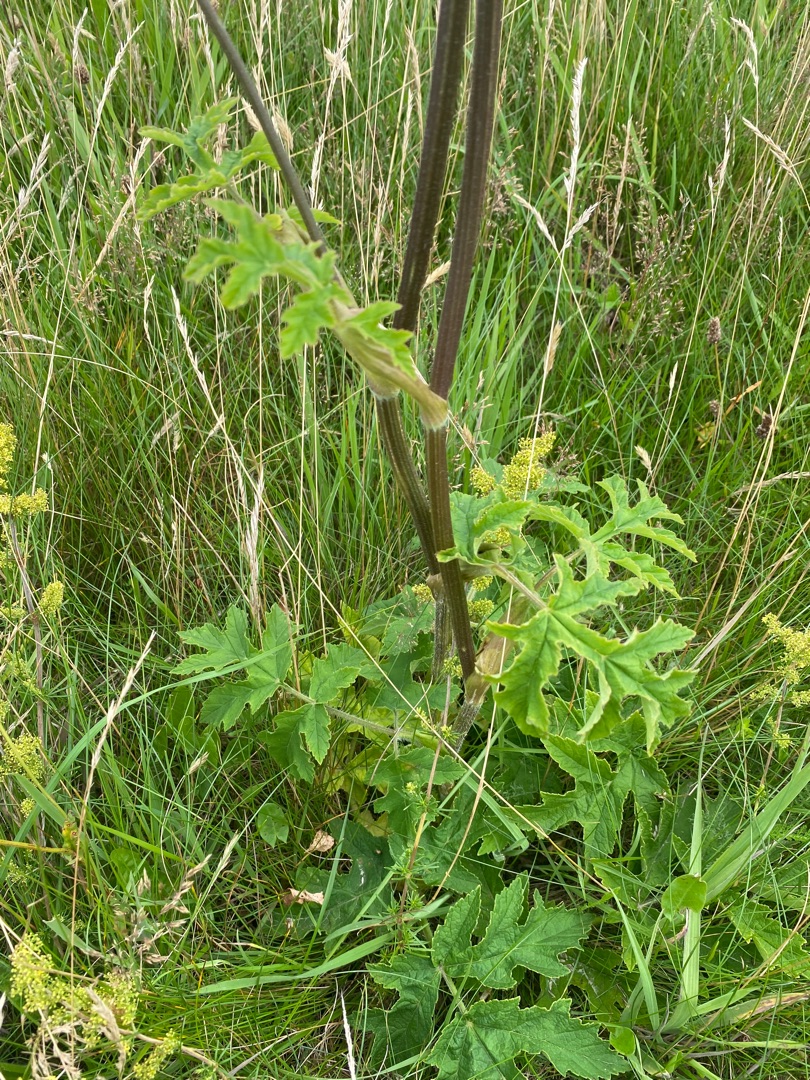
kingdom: Plantae
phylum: Tracheophyta
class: Magnoliopsida
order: Apiales
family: Apiaceae
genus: Heracleum
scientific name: Heracleum sphondylium
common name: Almindelig bjørneklo
